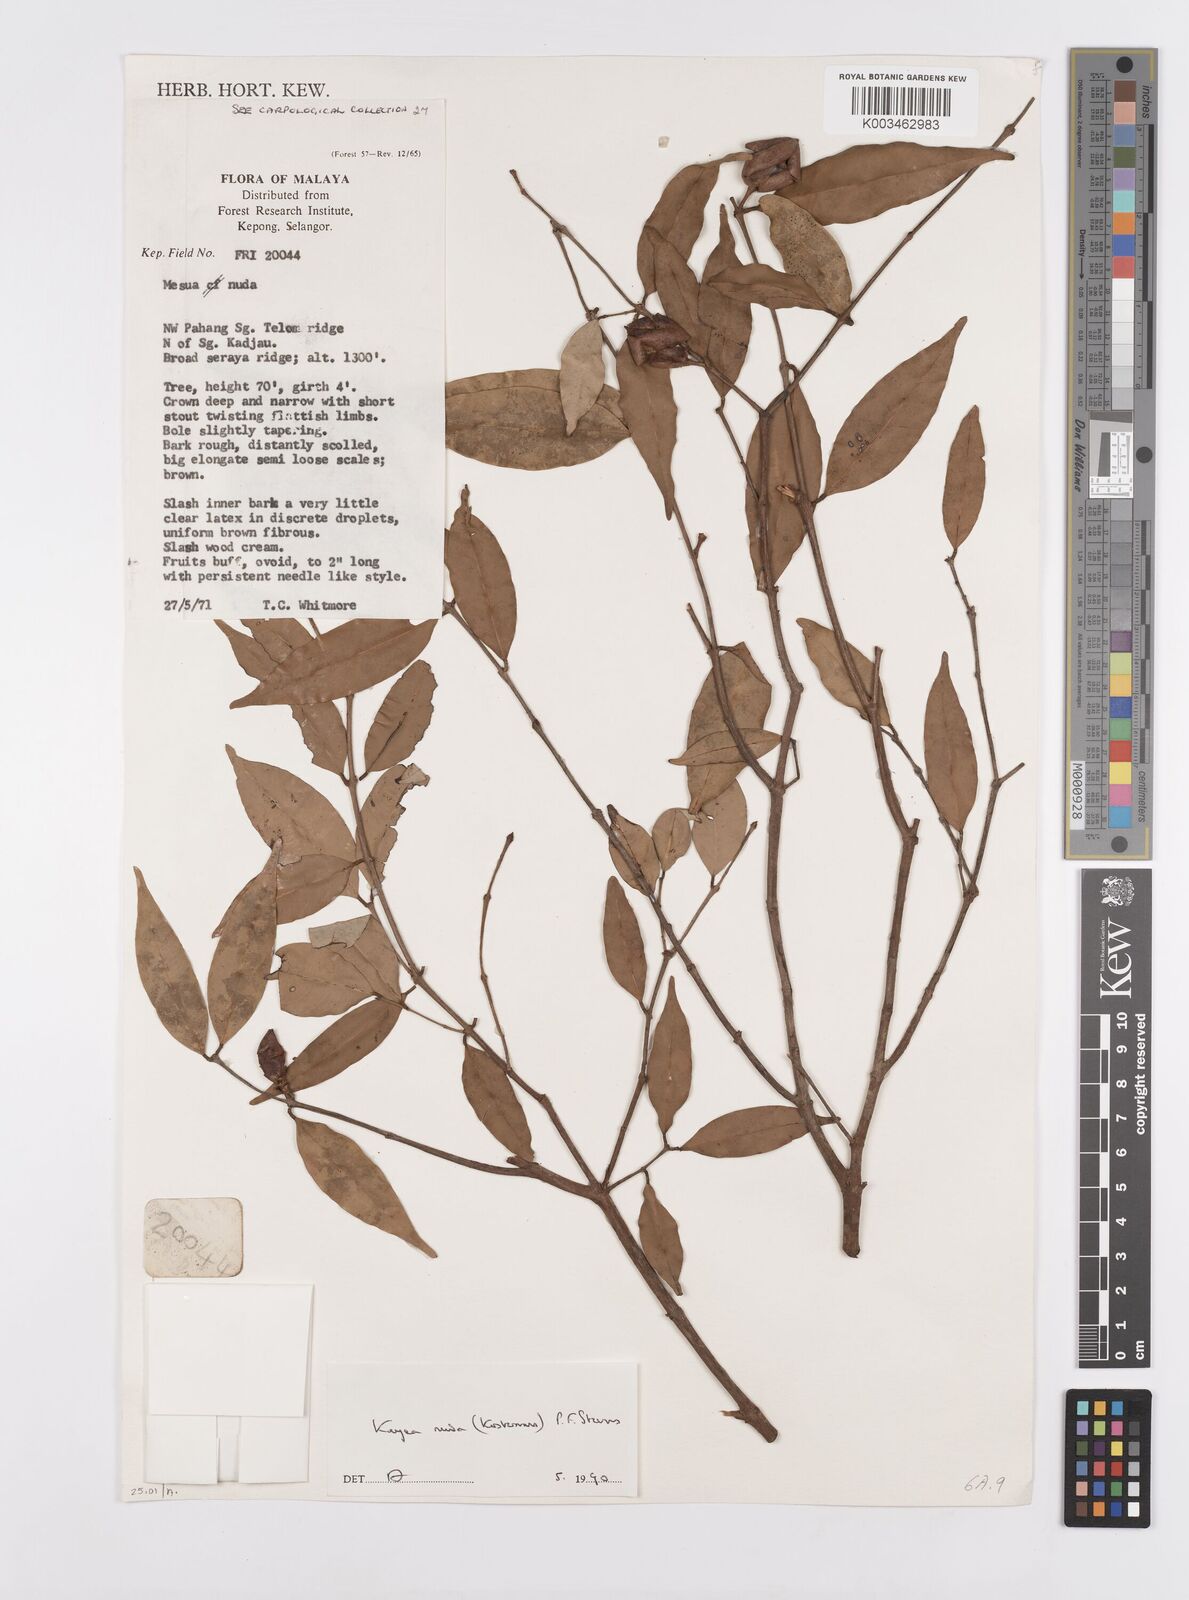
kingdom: Plantae
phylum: Tracheophyta
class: Magnoliopsida
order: Malpighiales
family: Calophyllaceae
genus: Kayea
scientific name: Kayea
